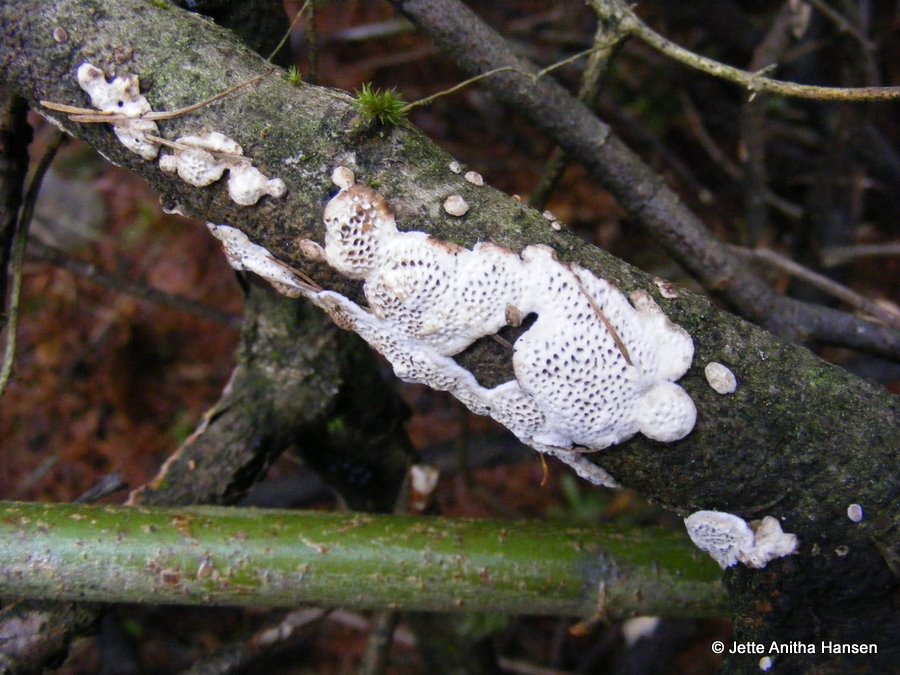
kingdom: Fungi
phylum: Basidiomycota
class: Agaricomycetes
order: Polyporales
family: Polyporaceae
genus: Podofomes
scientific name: Podofomes mollis
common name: blød begporesvamp
